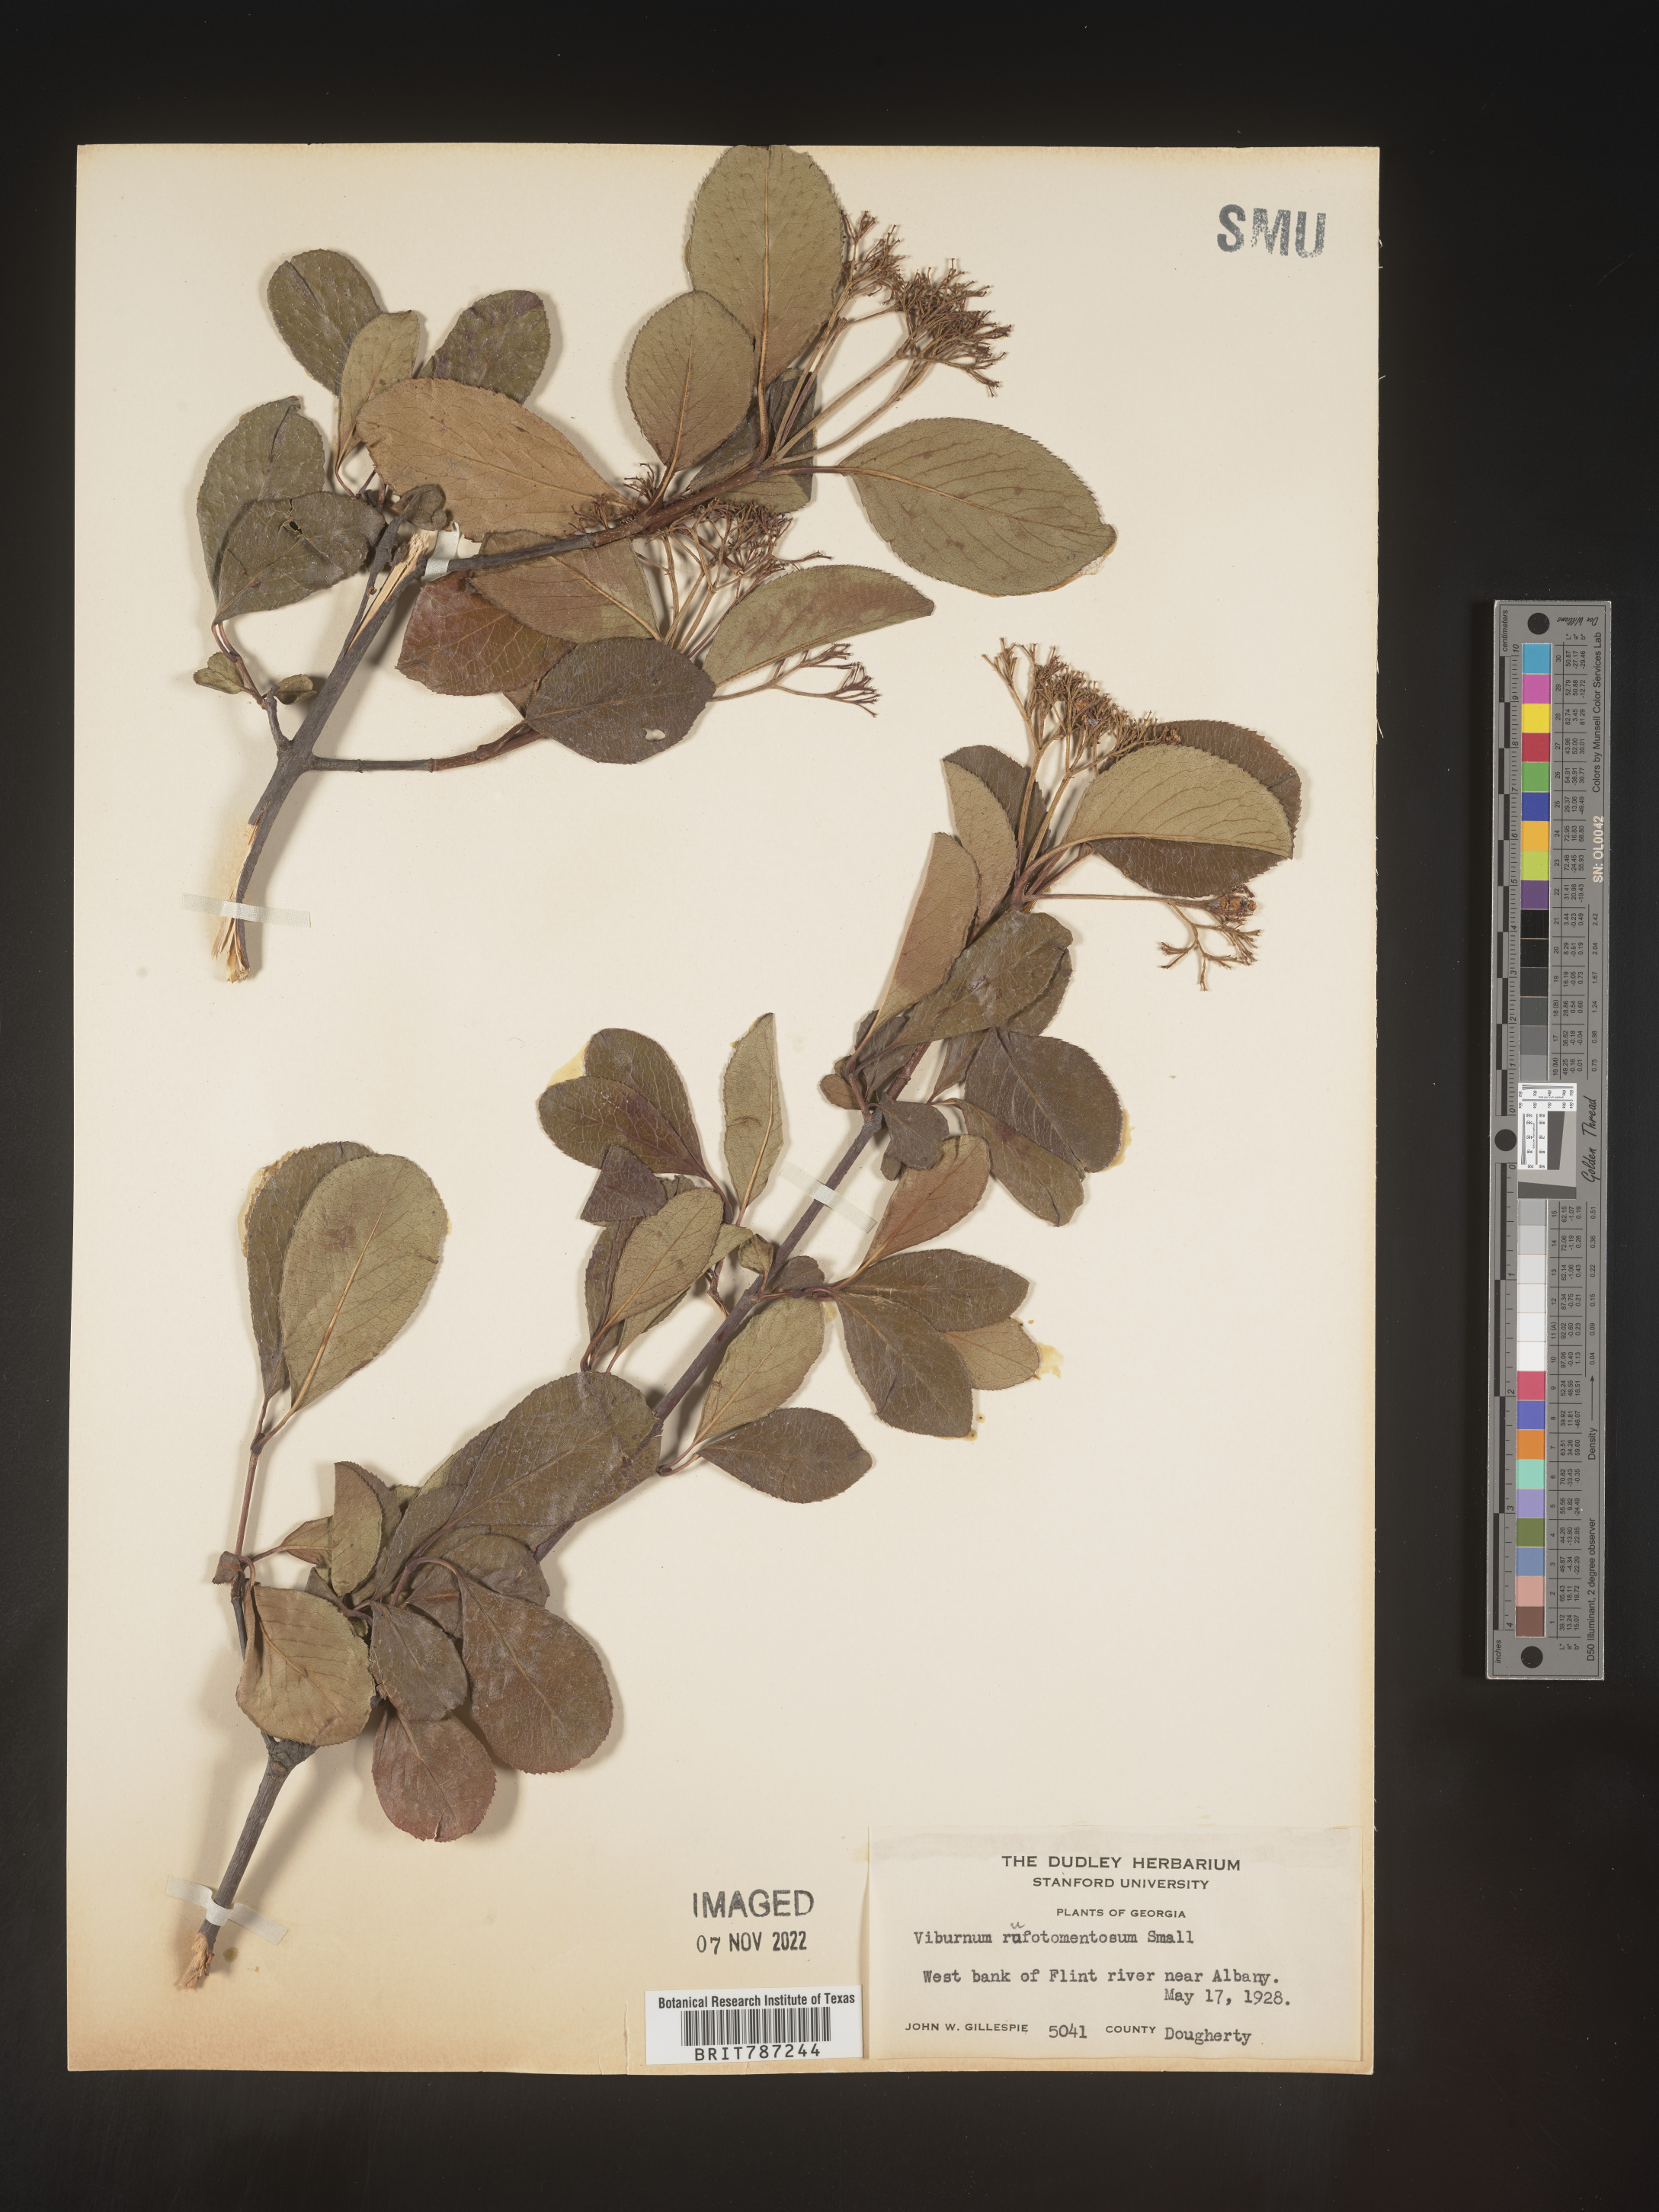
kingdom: Plantae
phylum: Tracheophyta
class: Magnoliopsida
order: Dipsacales
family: Viburnaceae
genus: Viburnum
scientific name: Viburnum rufidulum
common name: Blue haw
